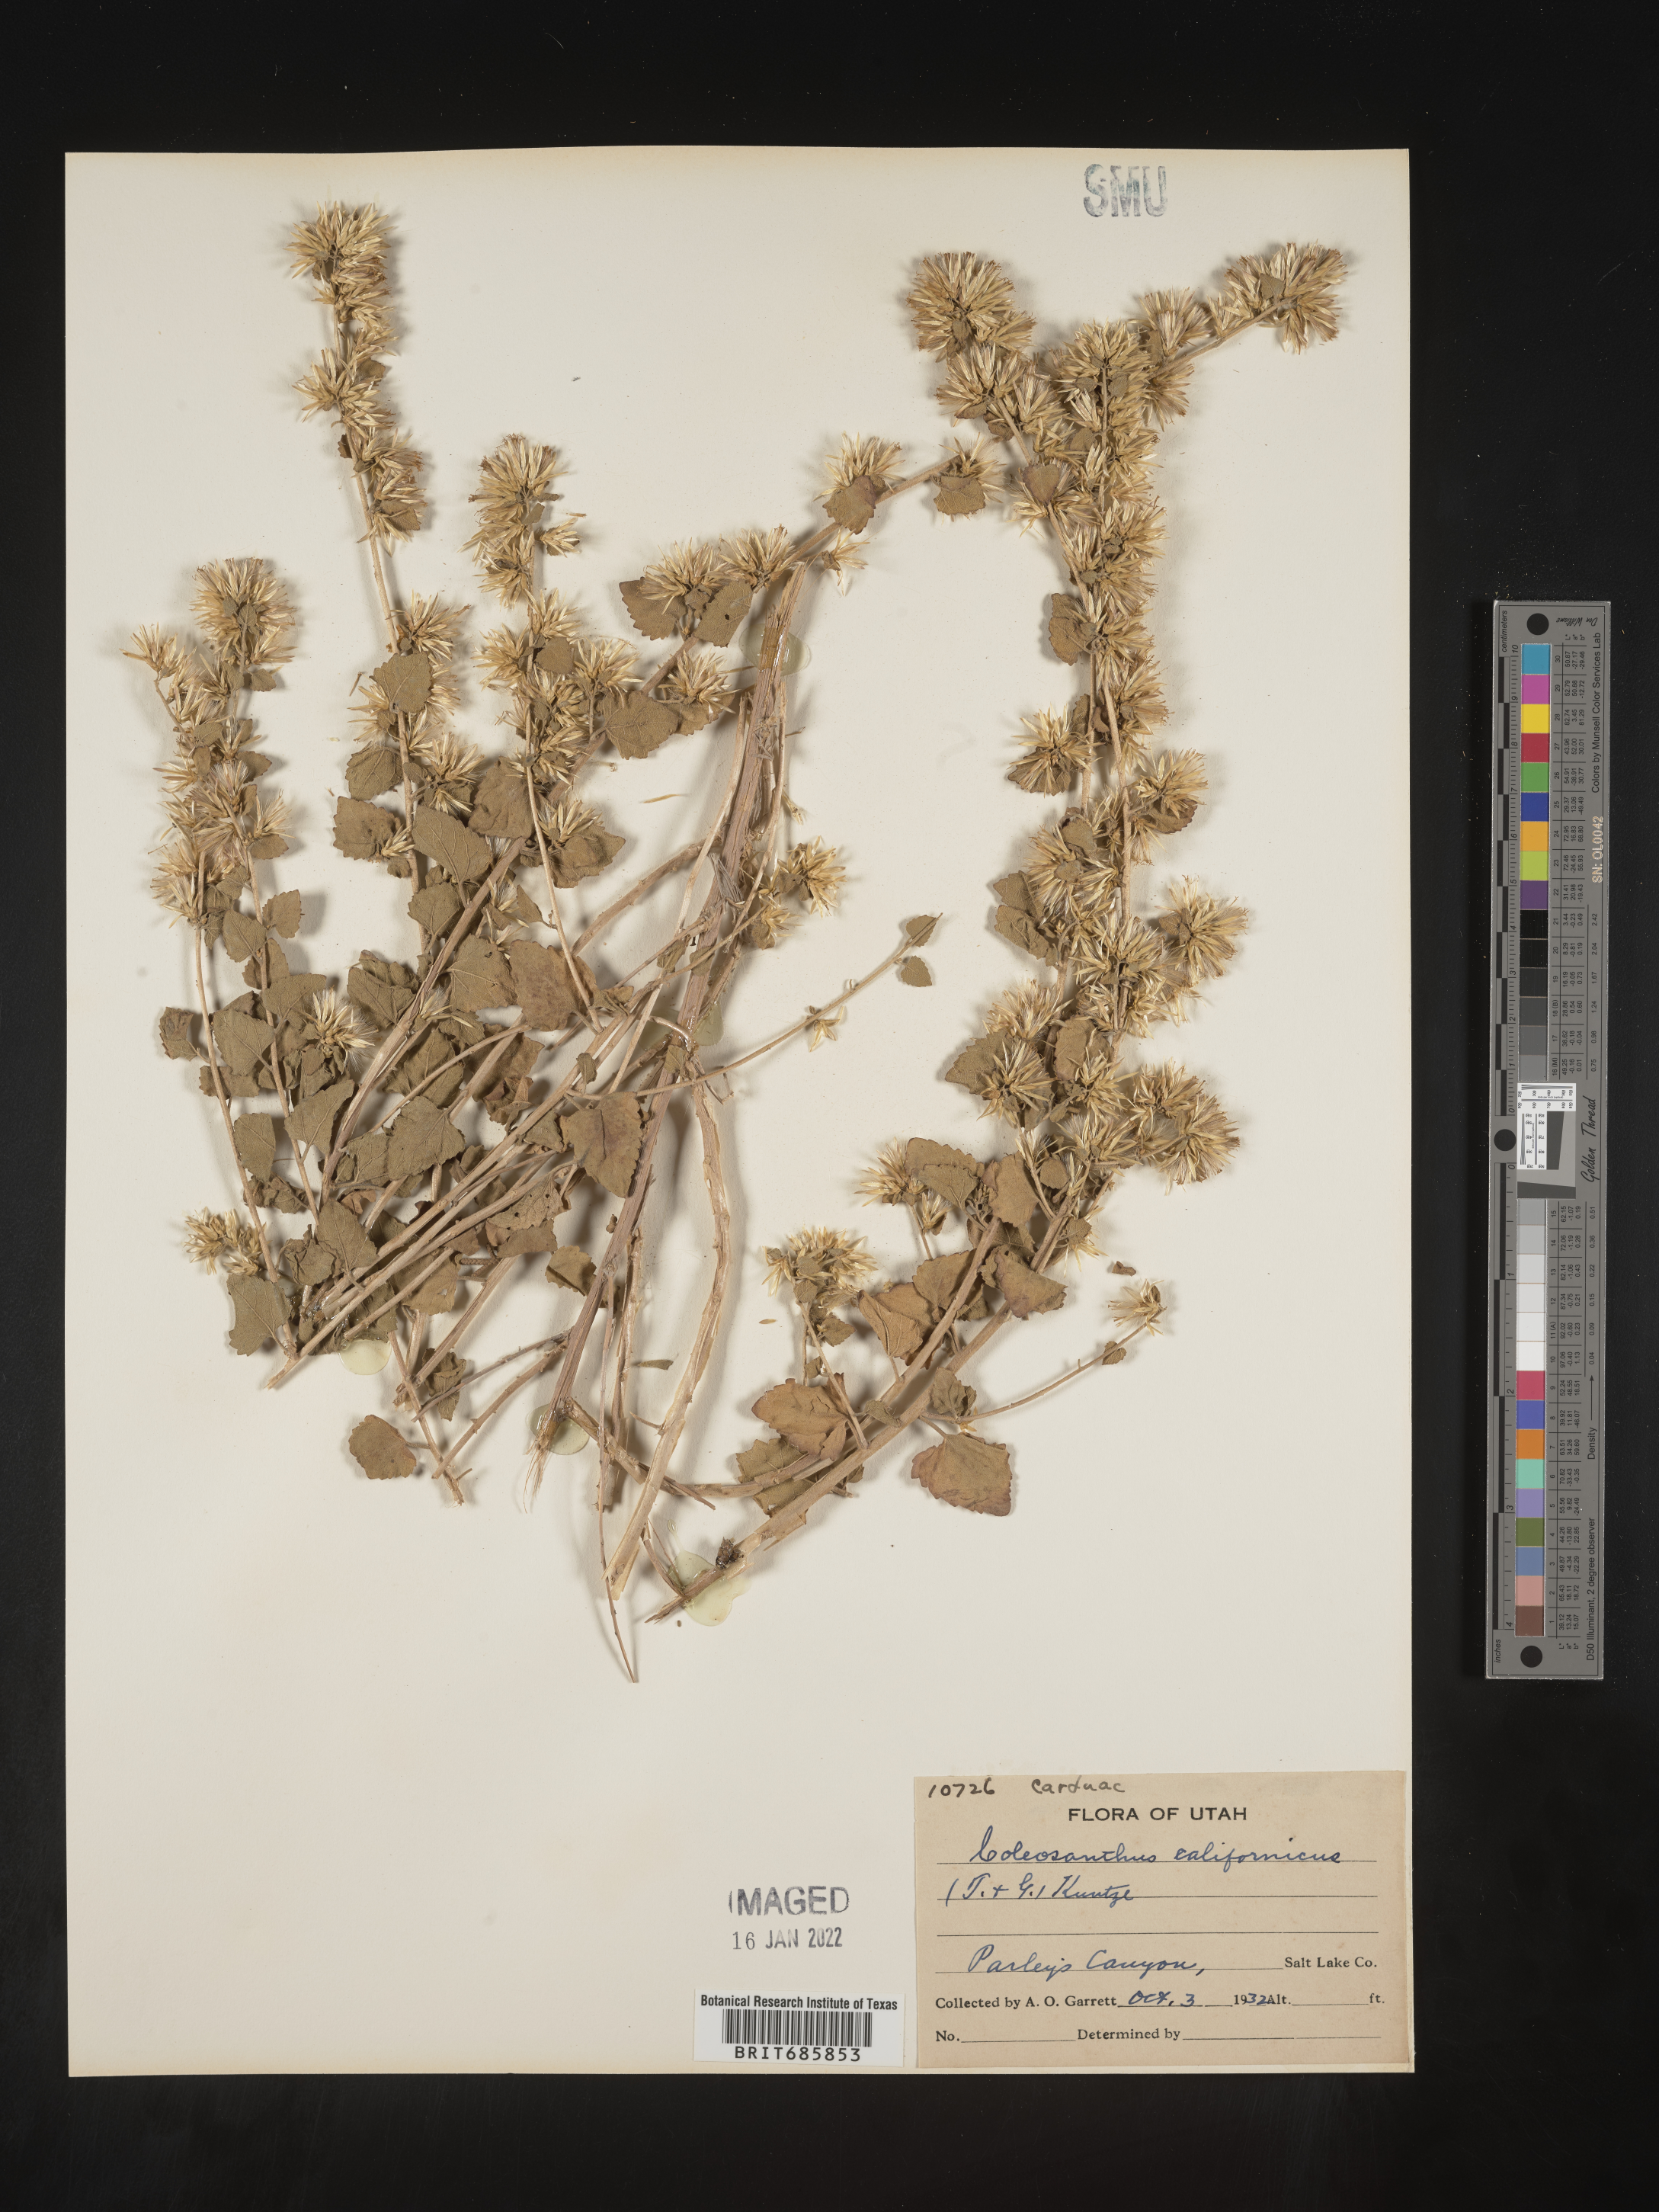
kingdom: Plantae
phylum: Tracheophyta
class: Magnoliopsida
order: Asterales
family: Asteraceae
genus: Brickellia
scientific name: Brickellia californica
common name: California brickellbush
